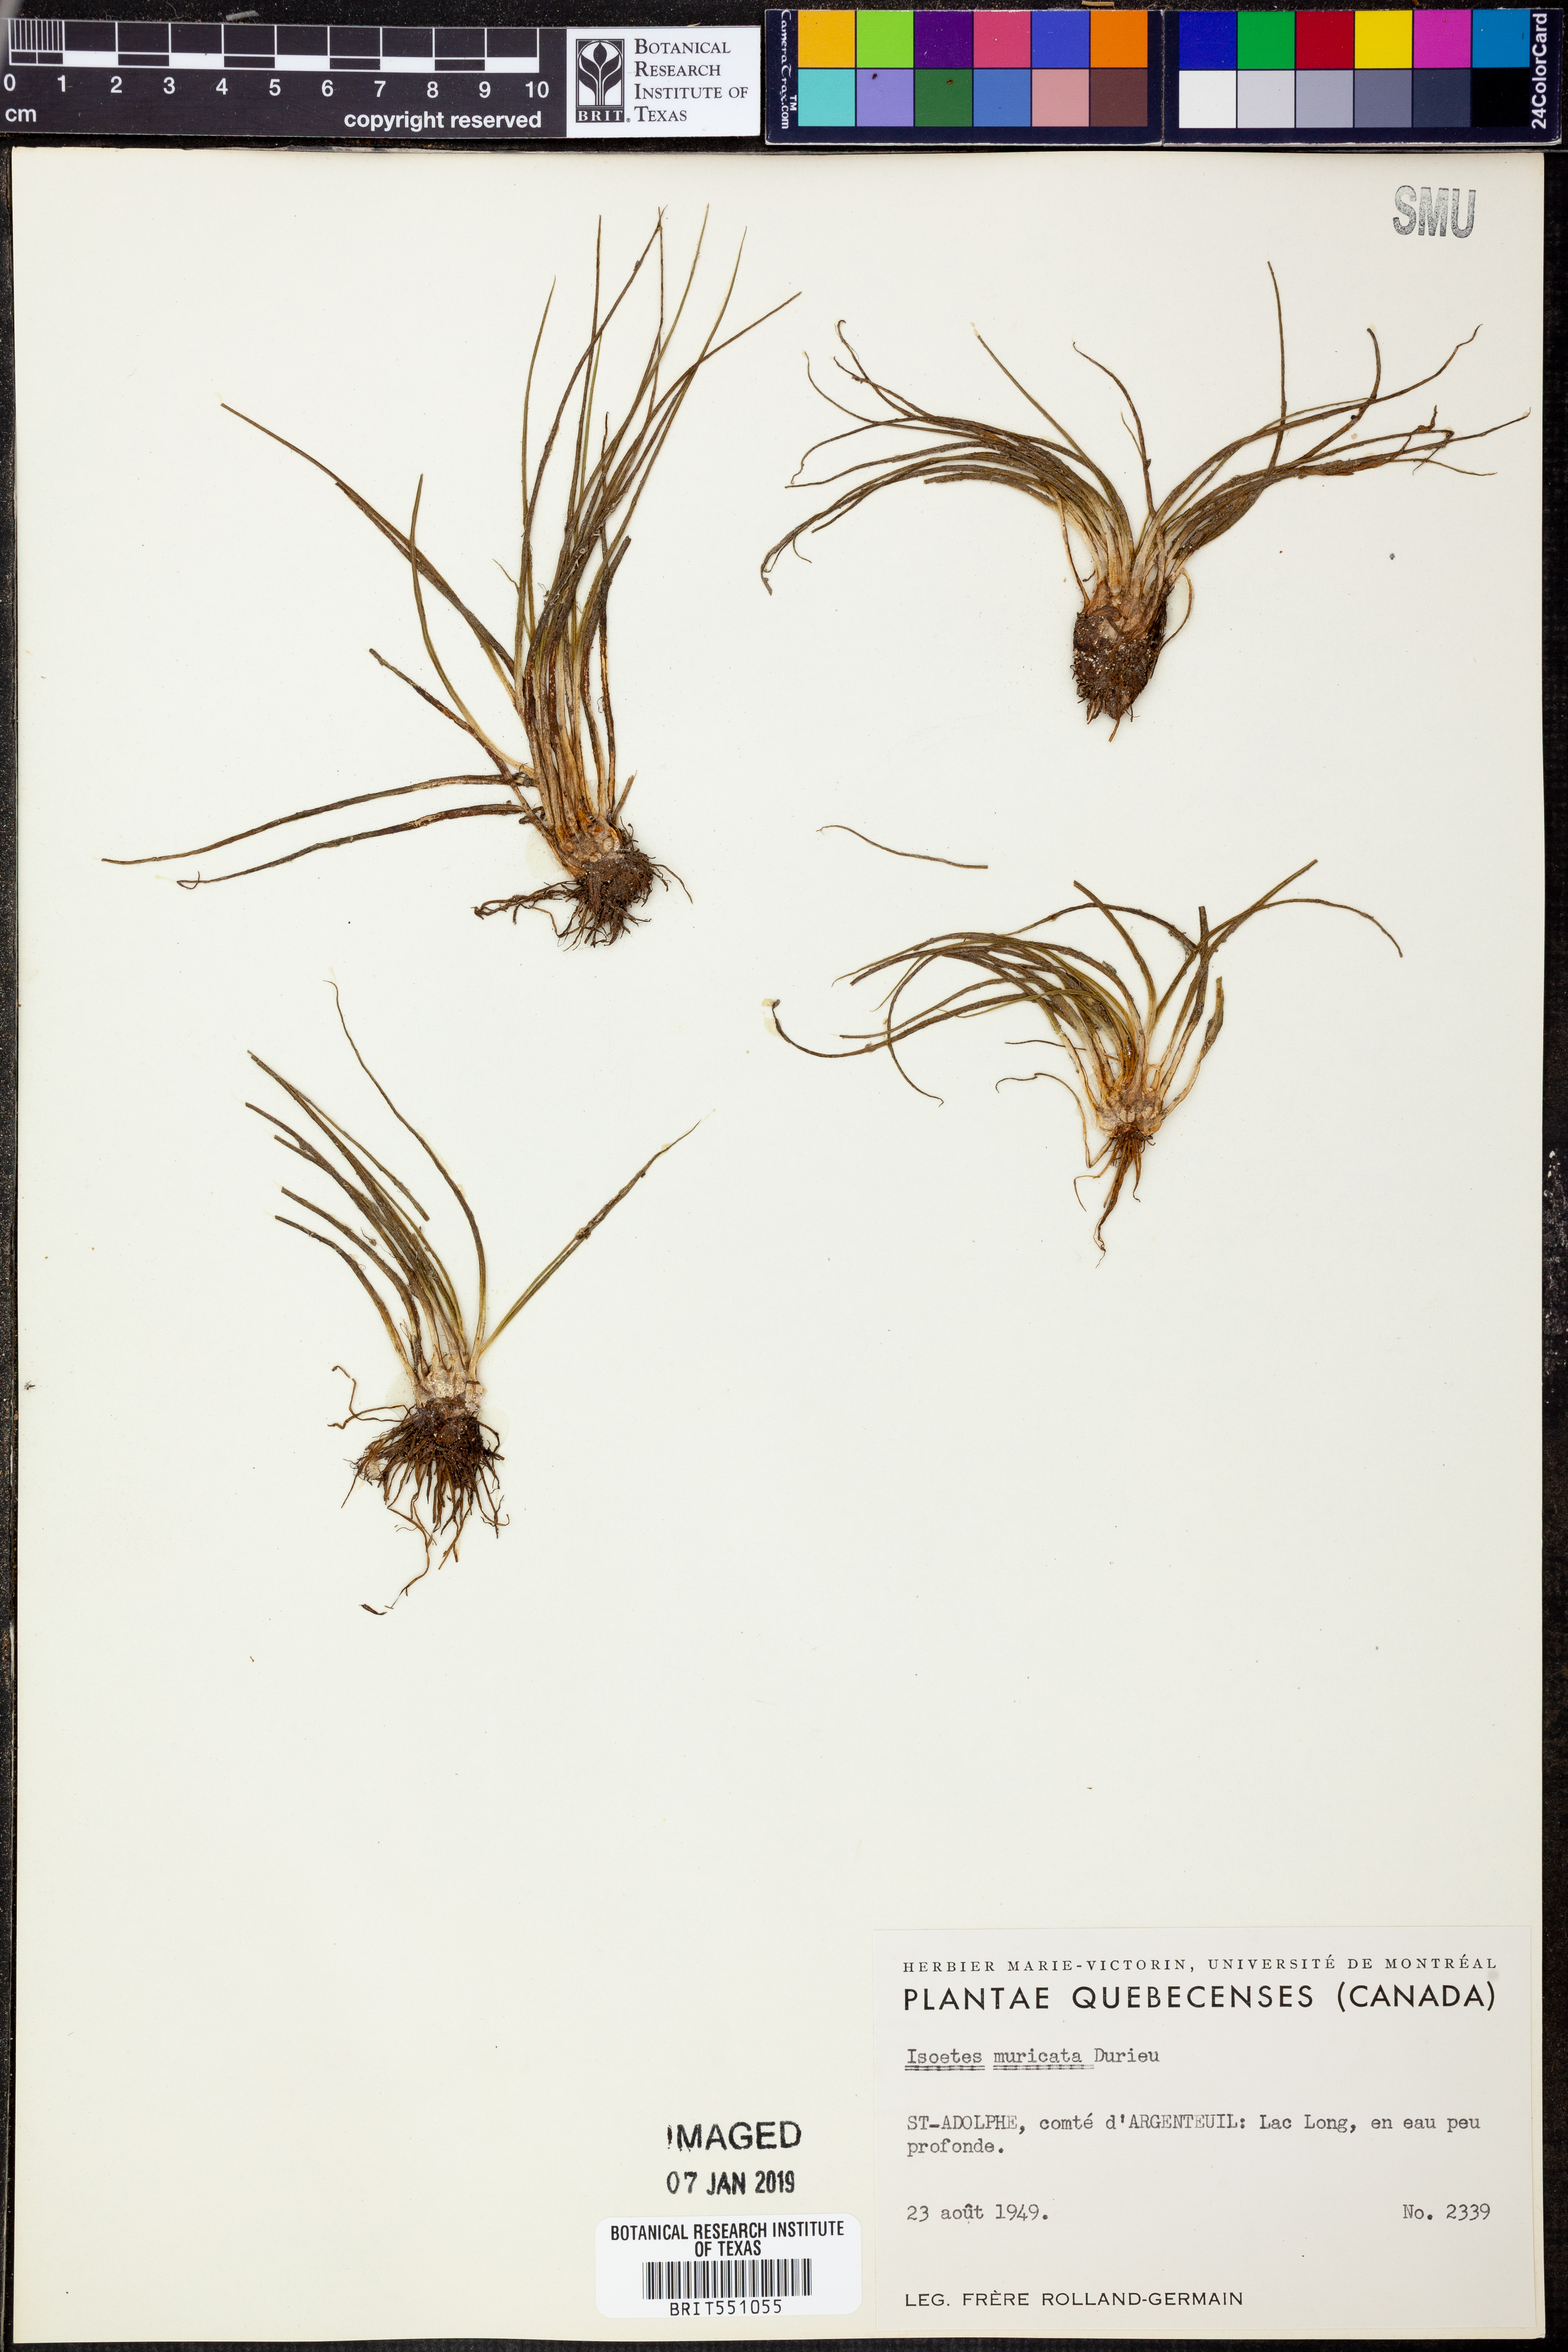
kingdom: Plantae
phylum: Tracheophyta
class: Lycopodiopsida
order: Isoetales
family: Isoetaceae
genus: Isoetes
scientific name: Isoetes echinospora
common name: Spring quillwort
